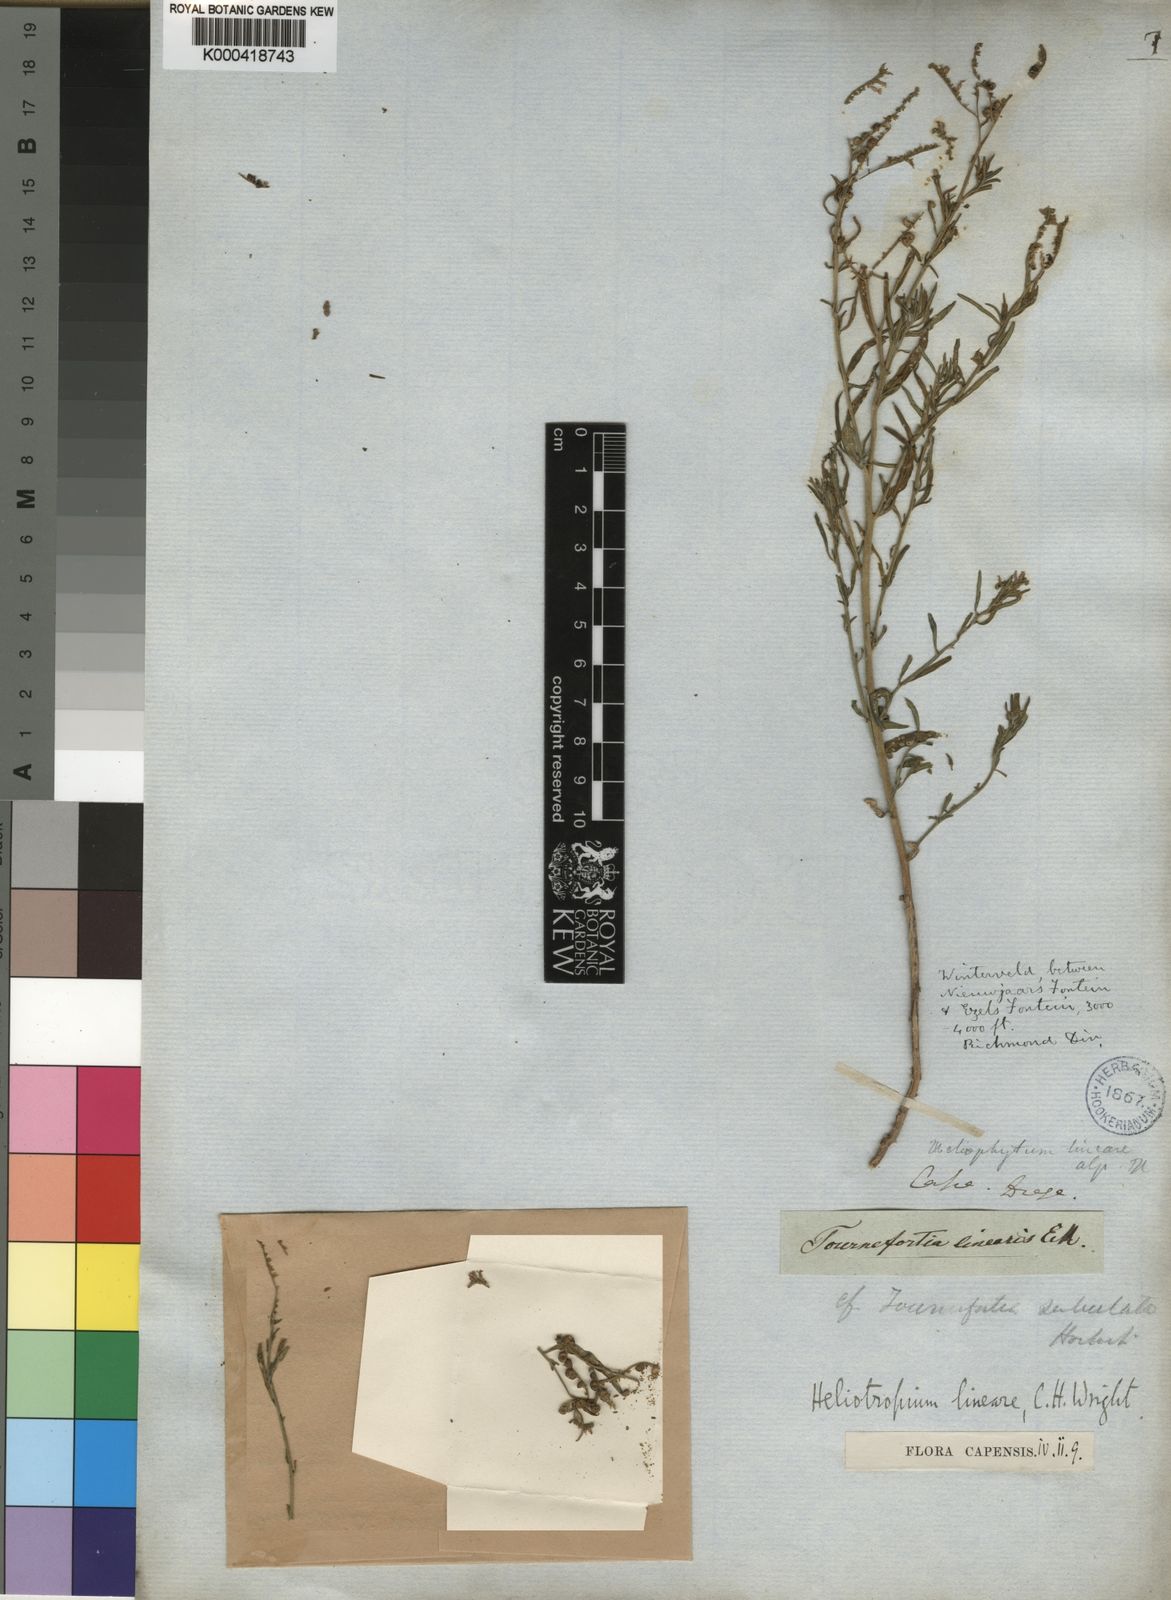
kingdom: Plantae
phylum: Tracheophyta
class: Magnoliopsida
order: Boraginales
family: Heliotropiaceae
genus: Heliotropium
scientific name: Heliotropium
